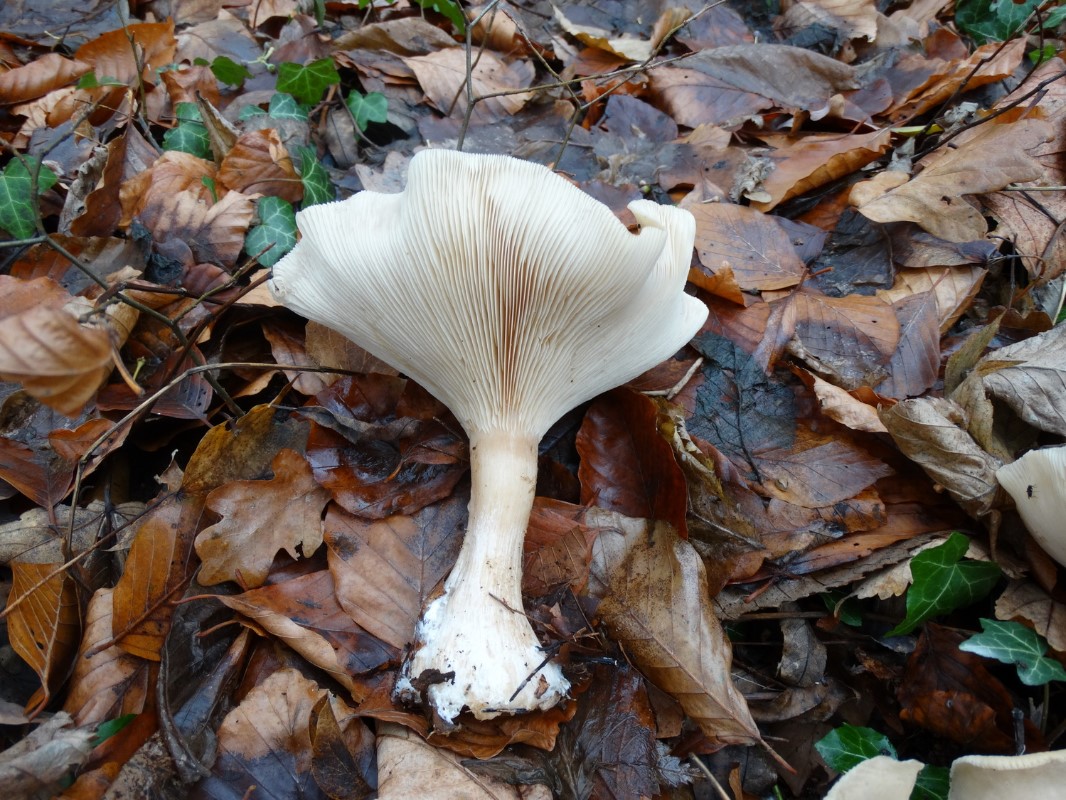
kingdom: Fungi
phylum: Basidiomycota
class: Agaricomycetes
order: Agaricales
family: Tricholomataceae
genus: Clitocybe
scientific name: Clitocybe nebularis
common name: tåge-tragthat
